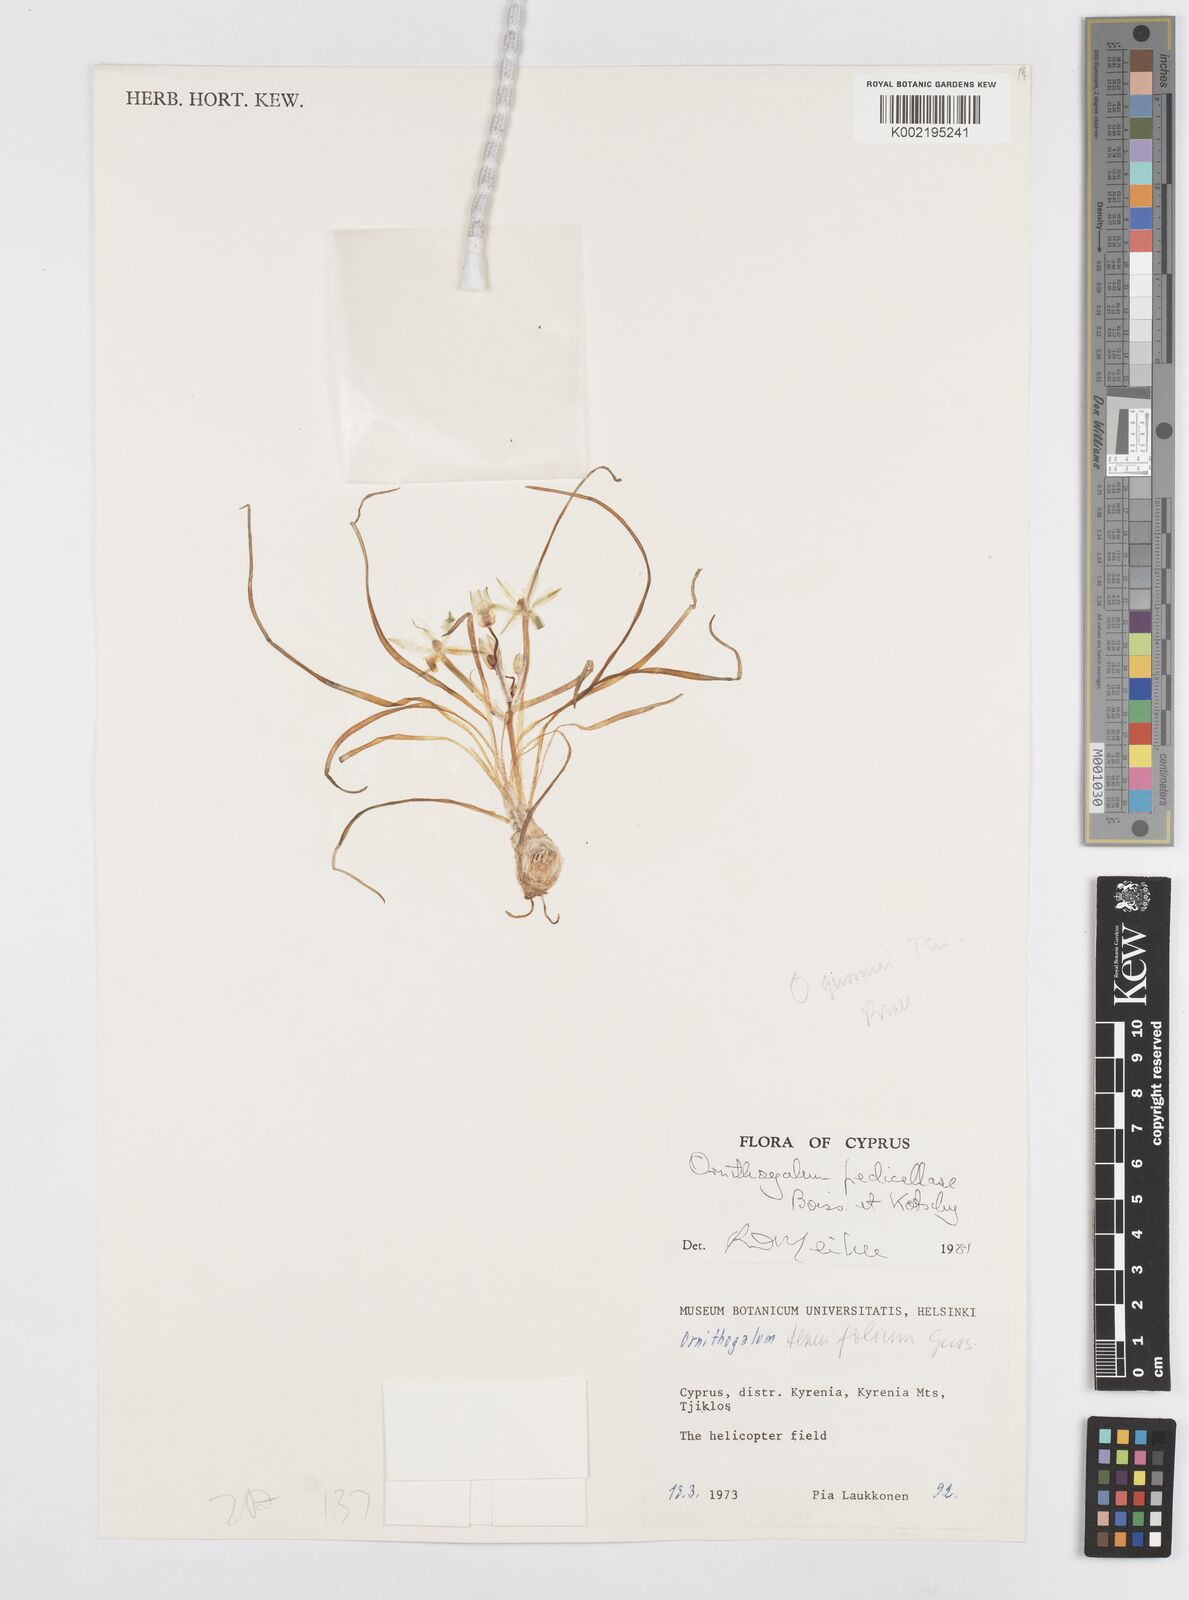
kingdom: Plantae
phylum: Tracheophyta
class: Liliopsida
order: Asparagales
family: Asparagaceae
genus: Ornithogalum
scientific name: Ornithogalum pedicellare
